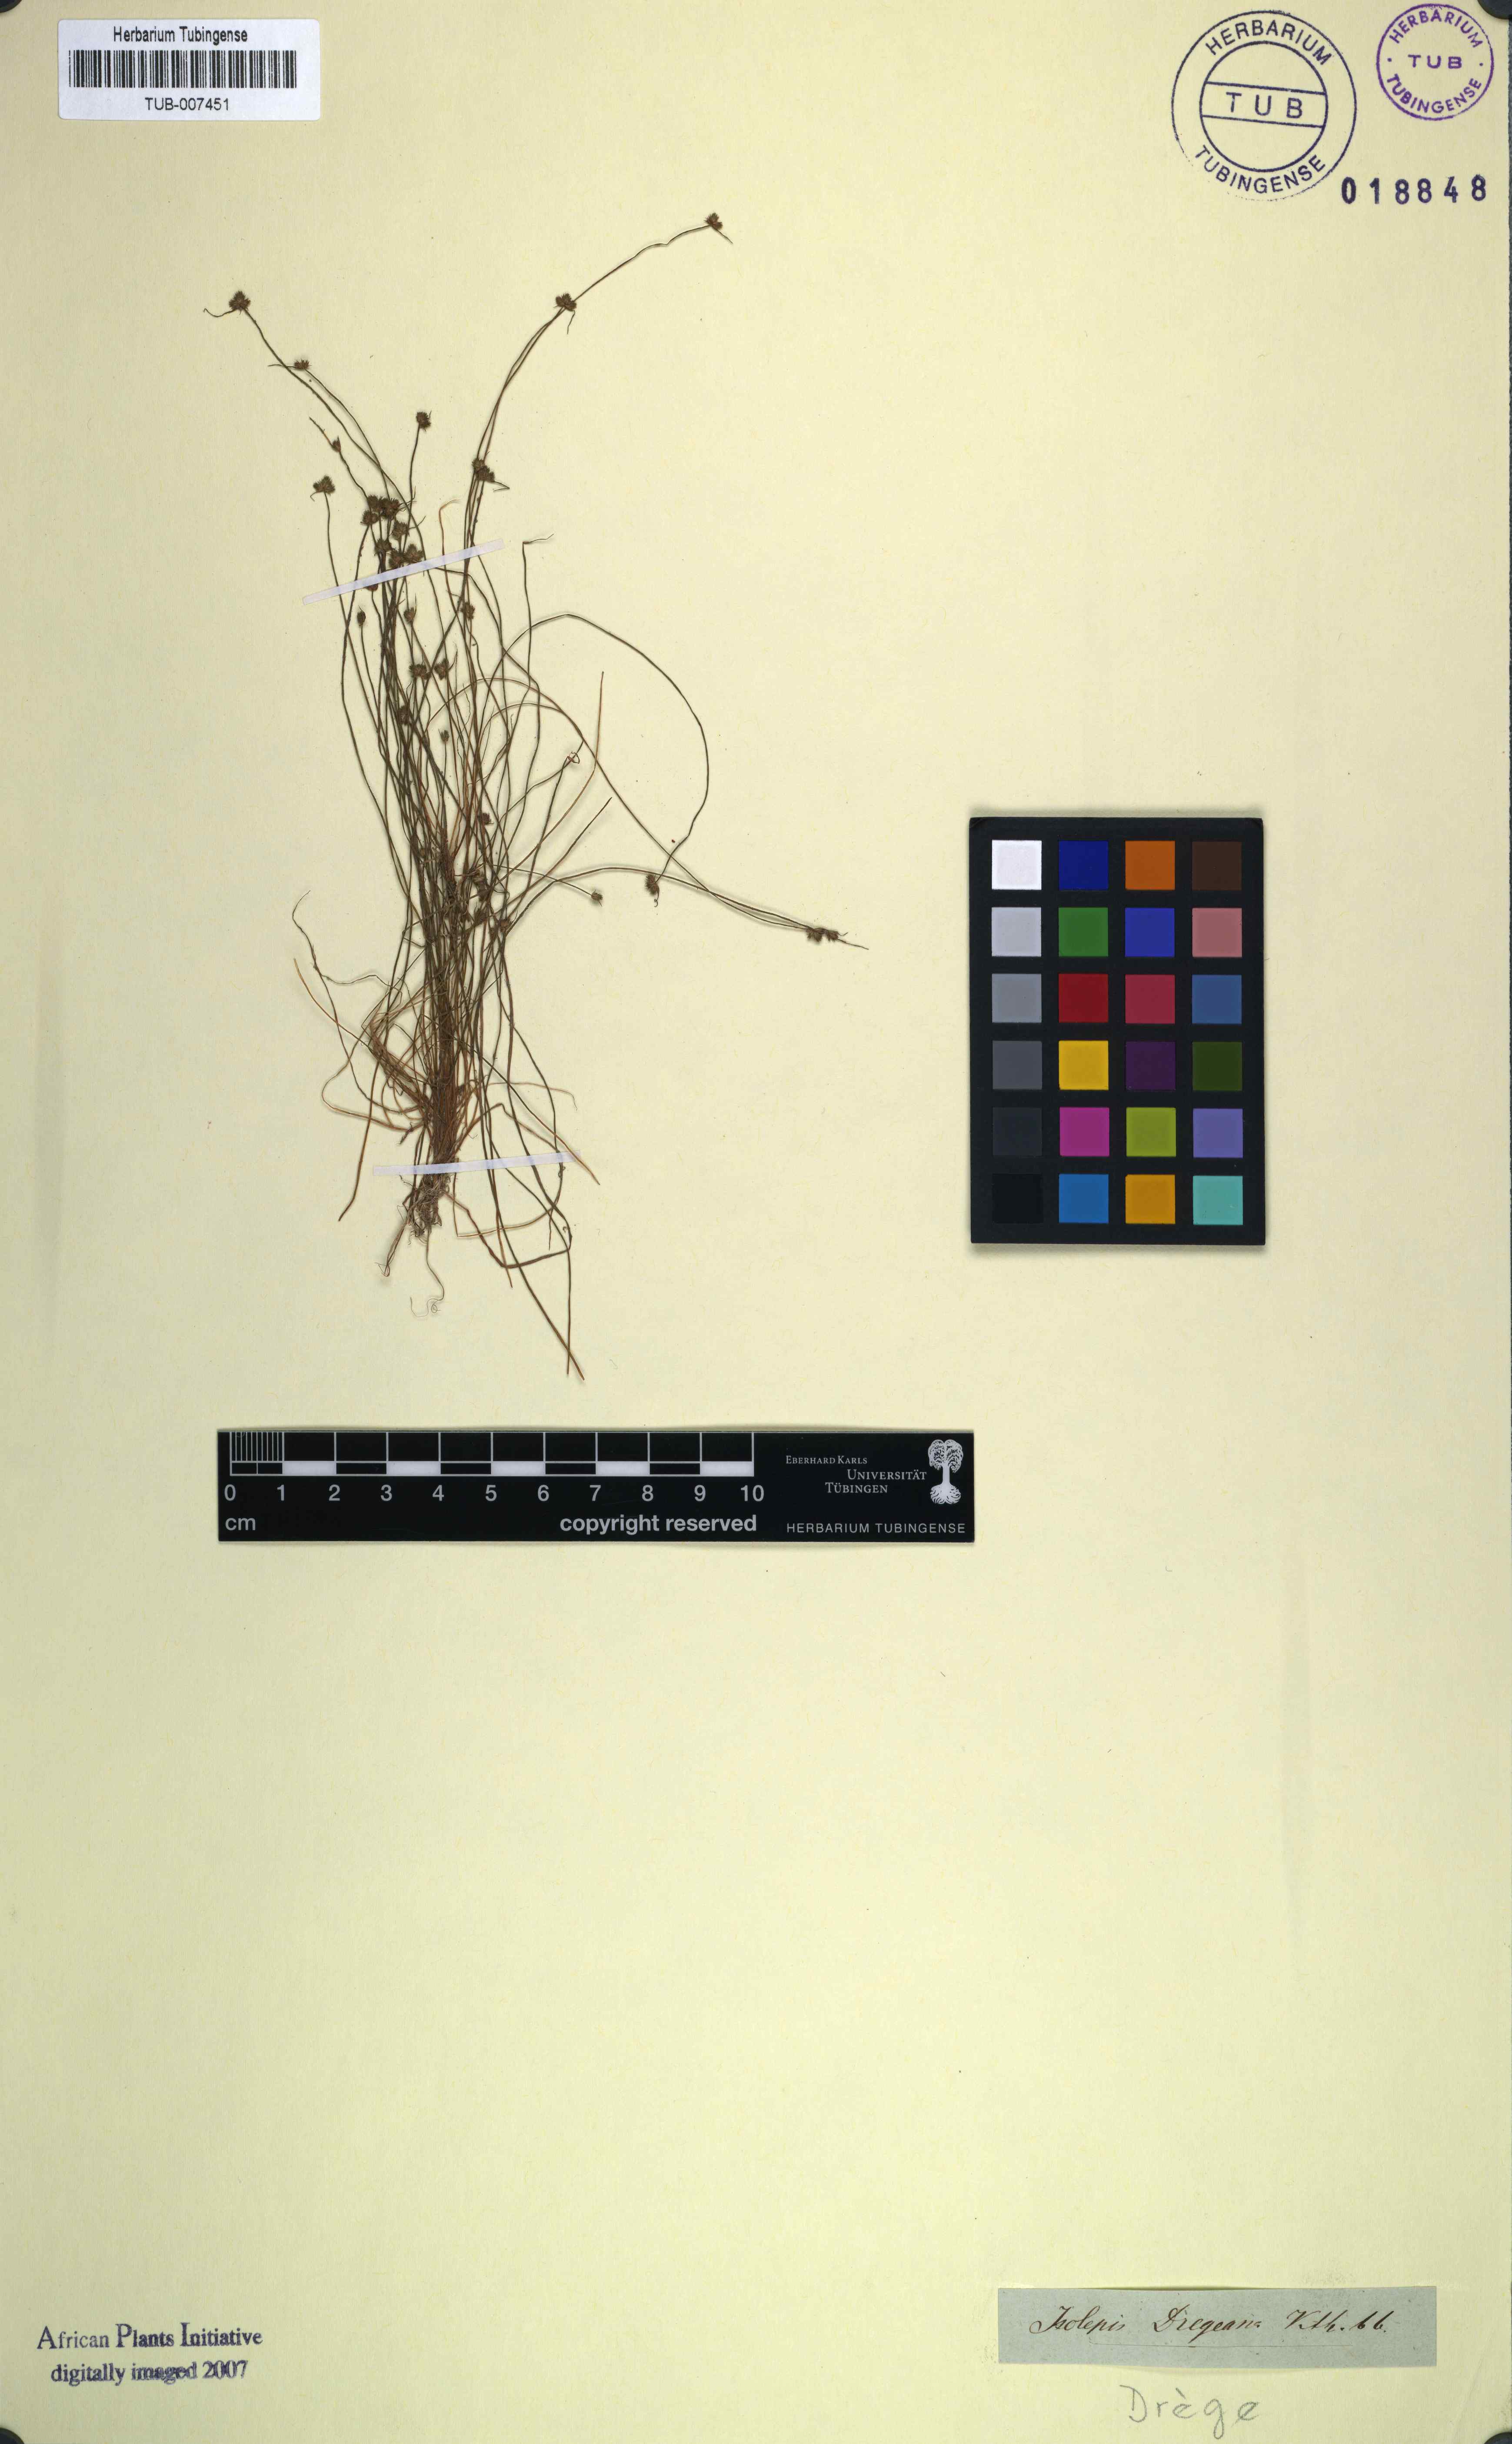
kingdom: Plantae
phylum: Tracheophyta
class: Liliopsida
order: Poales
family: Cyperaceae
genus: Isolepis
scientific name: Isolepis hystrix
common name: Bottlebrush bulrush
